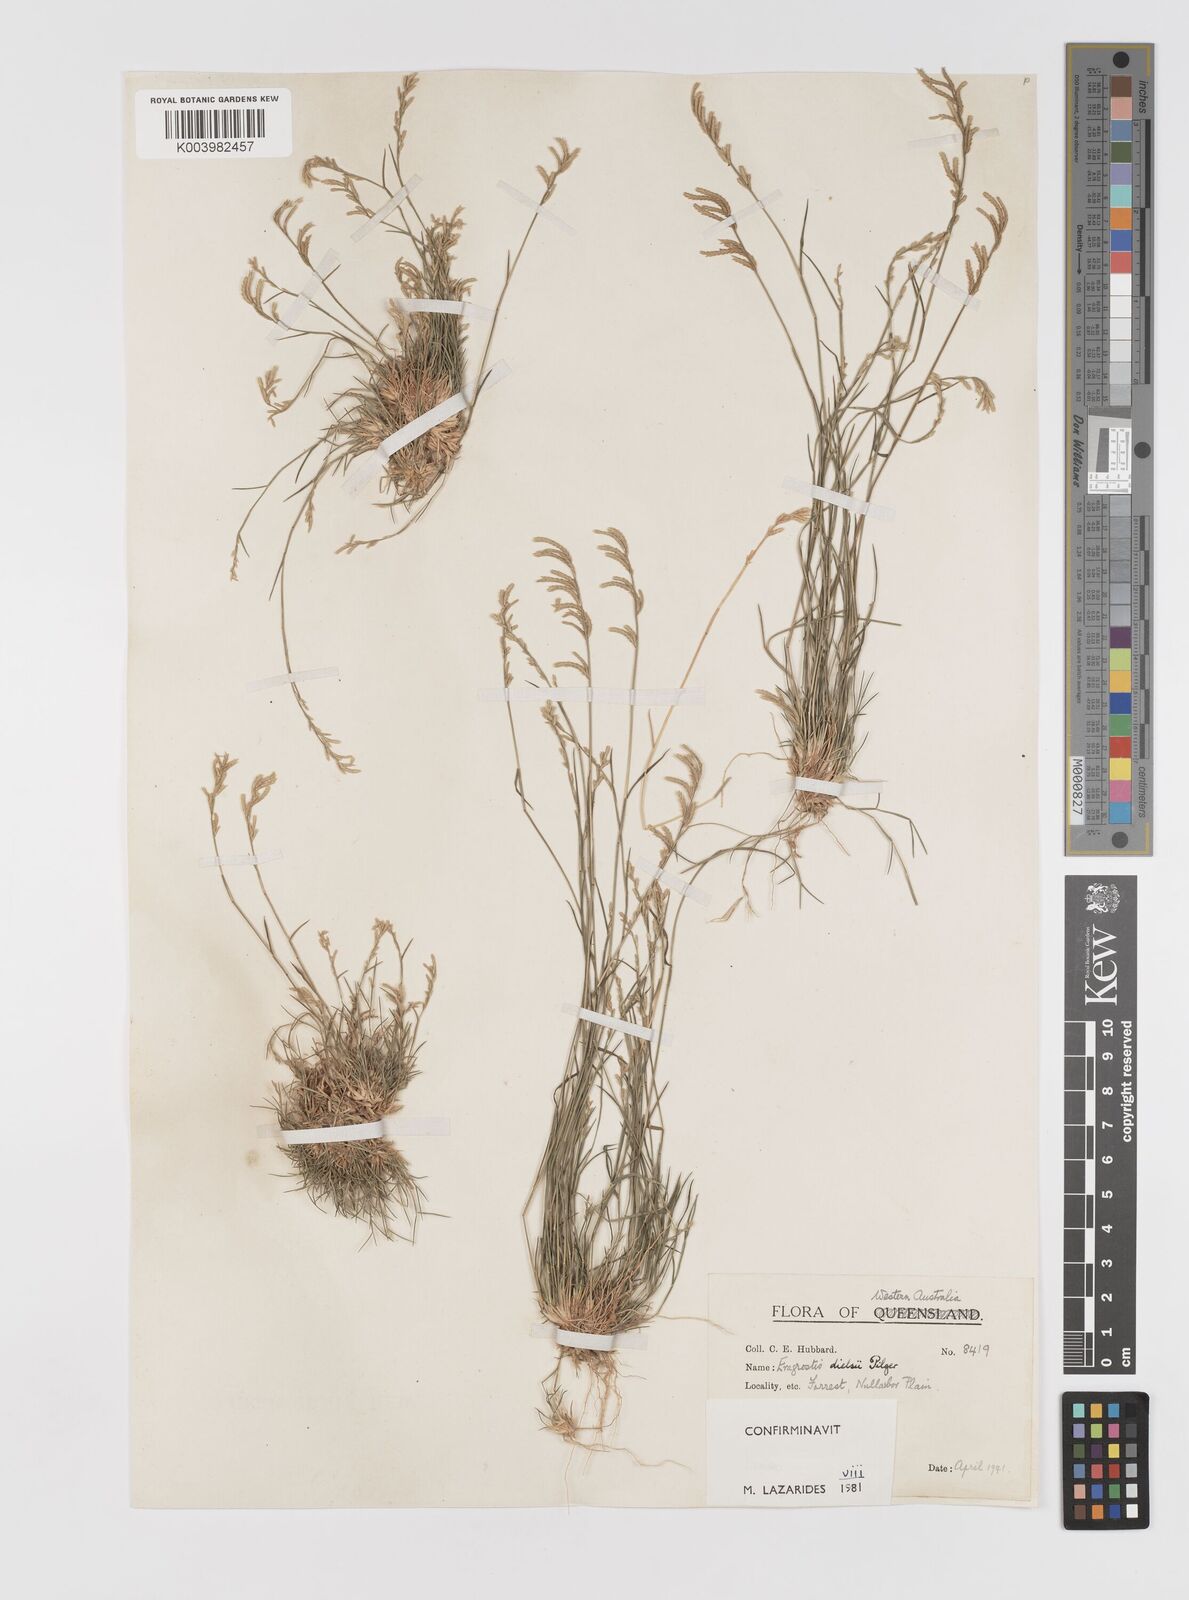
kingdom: Plantae
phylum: Tracheophyta
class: Liliopsida
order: Poales
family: Poaceae
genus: Eragrostis
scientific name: Eragrostis dielsii
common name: Lovegrass
